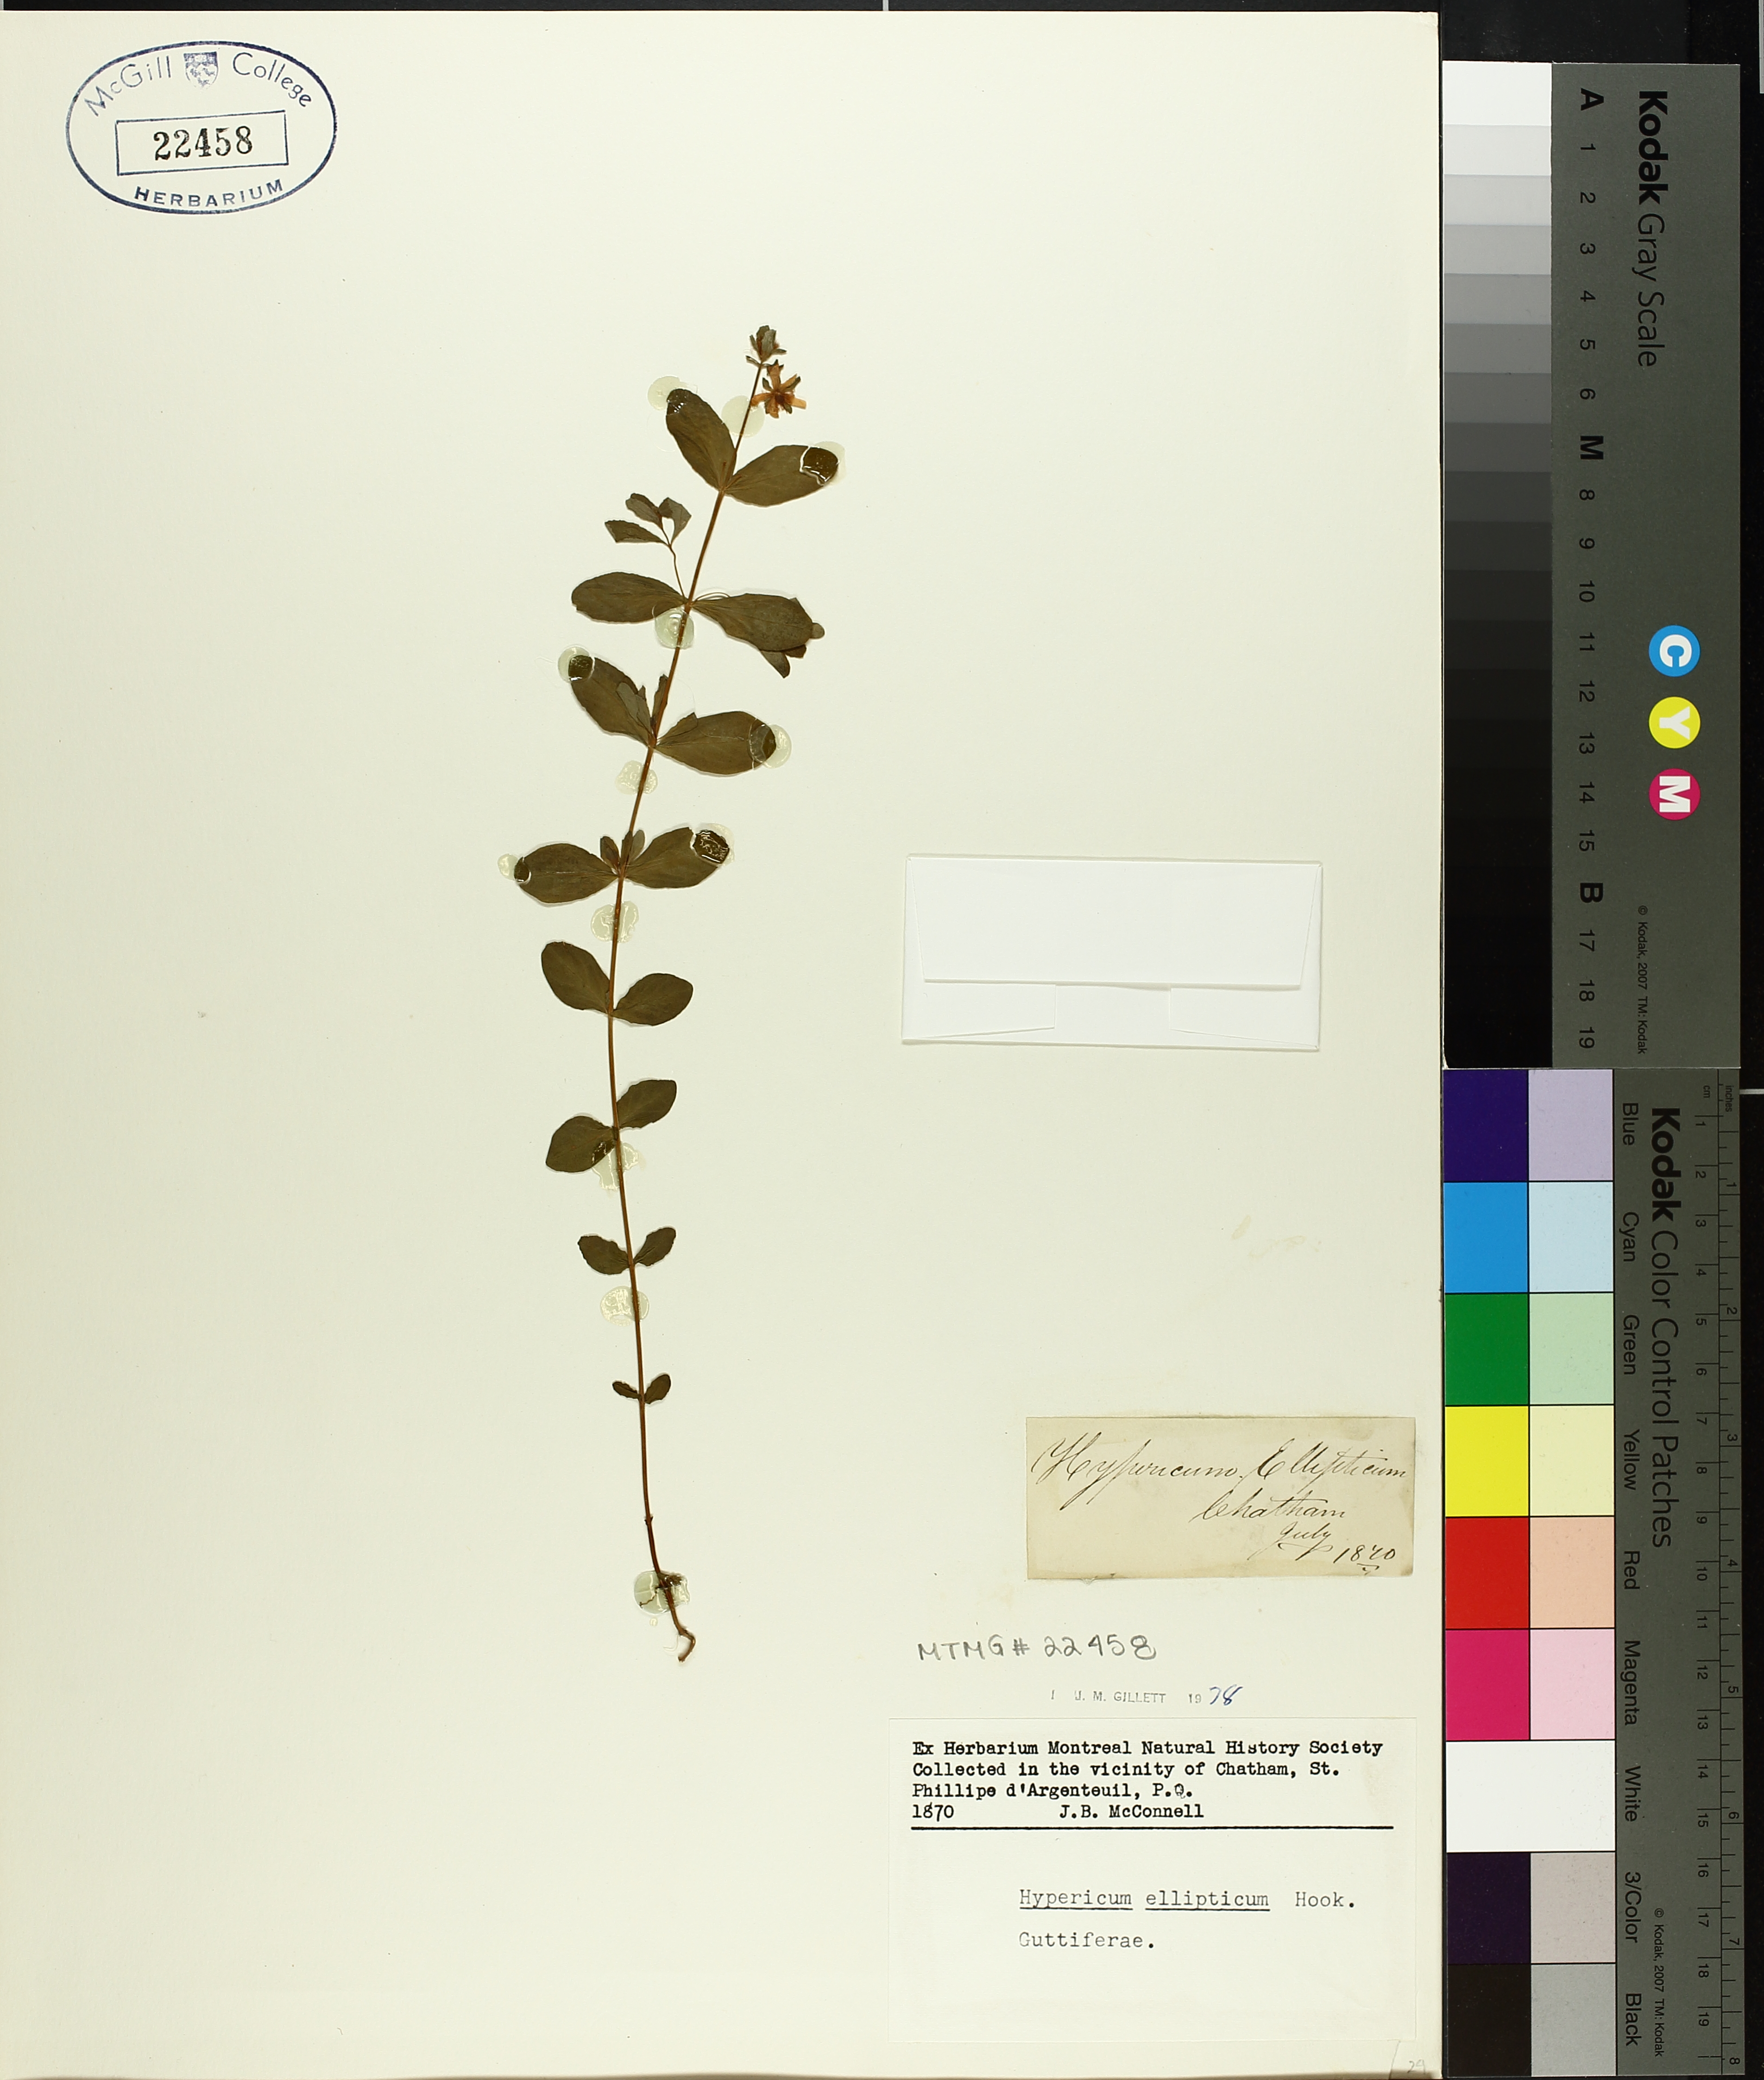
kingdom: Plantae
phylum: Tracheophyta
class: Magnoliopsida
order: Malpighiales
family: Hypericaceae
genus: Hypericum
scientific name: Hypericum ellipticum
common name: Elliptic st. john's-wort
